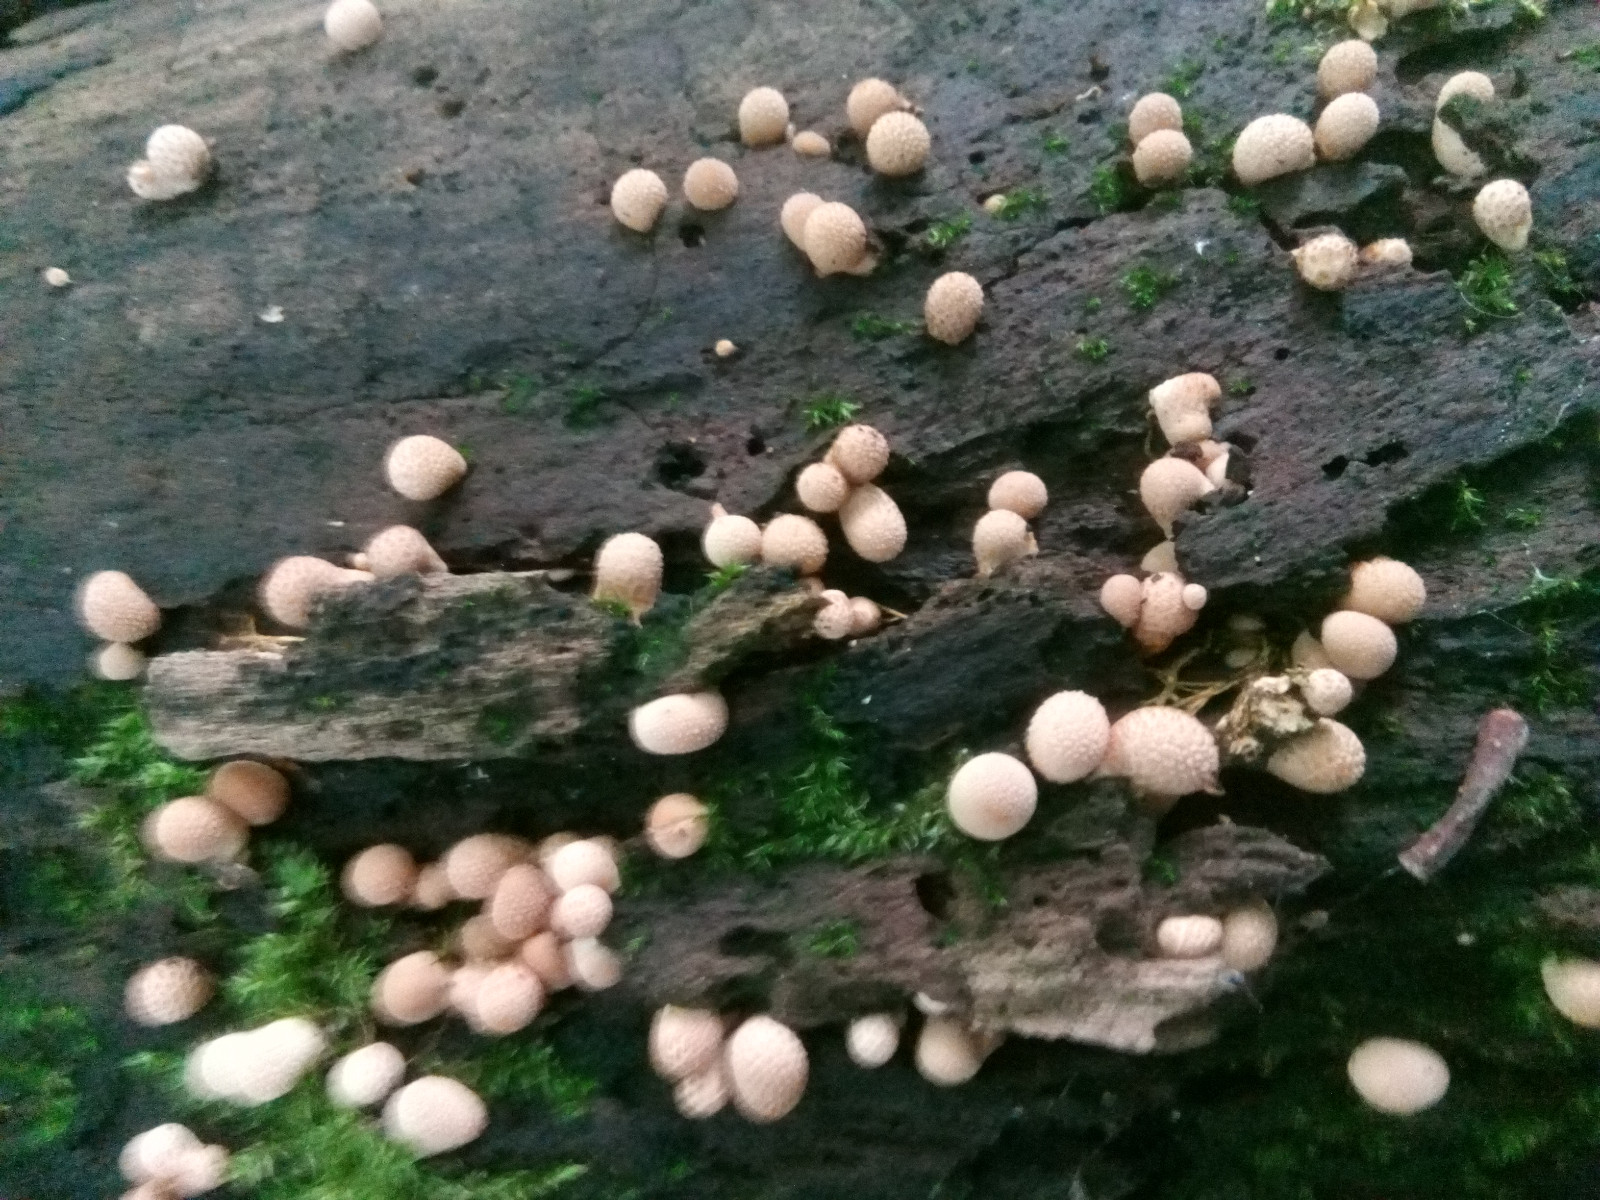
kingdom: Fungi
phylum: Basidiomycota
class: Agaricomycetes
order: Agaricales
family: Lycoperdaceae
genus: Apioperdon
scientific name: Apioperdon pyriforme
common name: pære-støvbold
